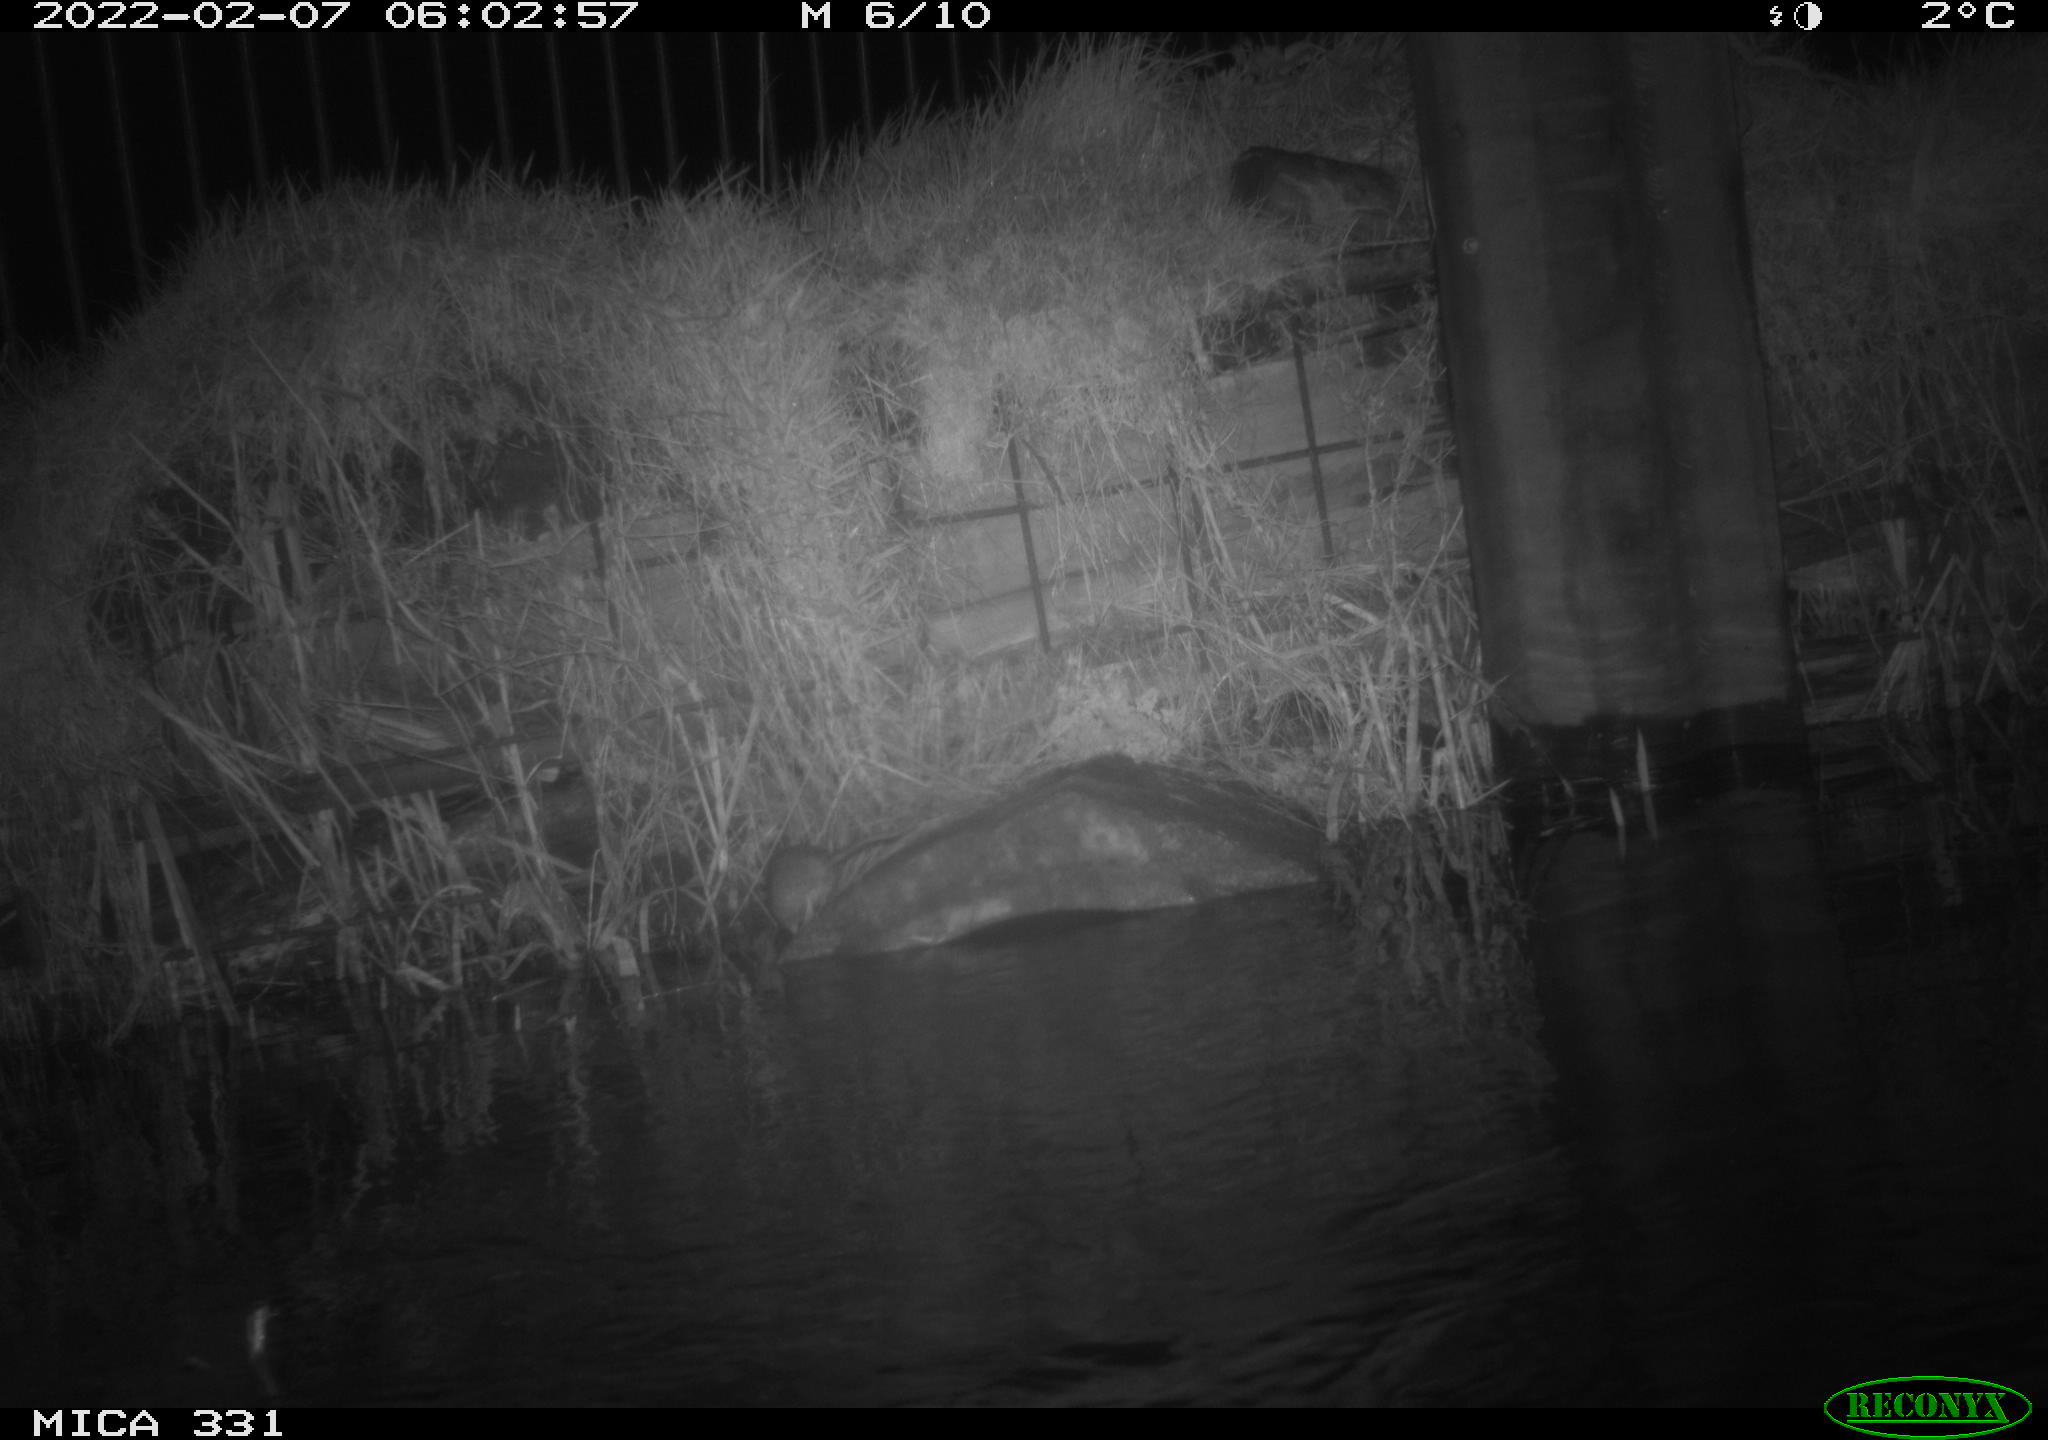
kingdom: Animalia
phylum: Chordata
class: Mammalia
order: Rodentia
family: Muridae
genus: Rattus
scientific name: Rattus norvegicus
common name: Brown rat
